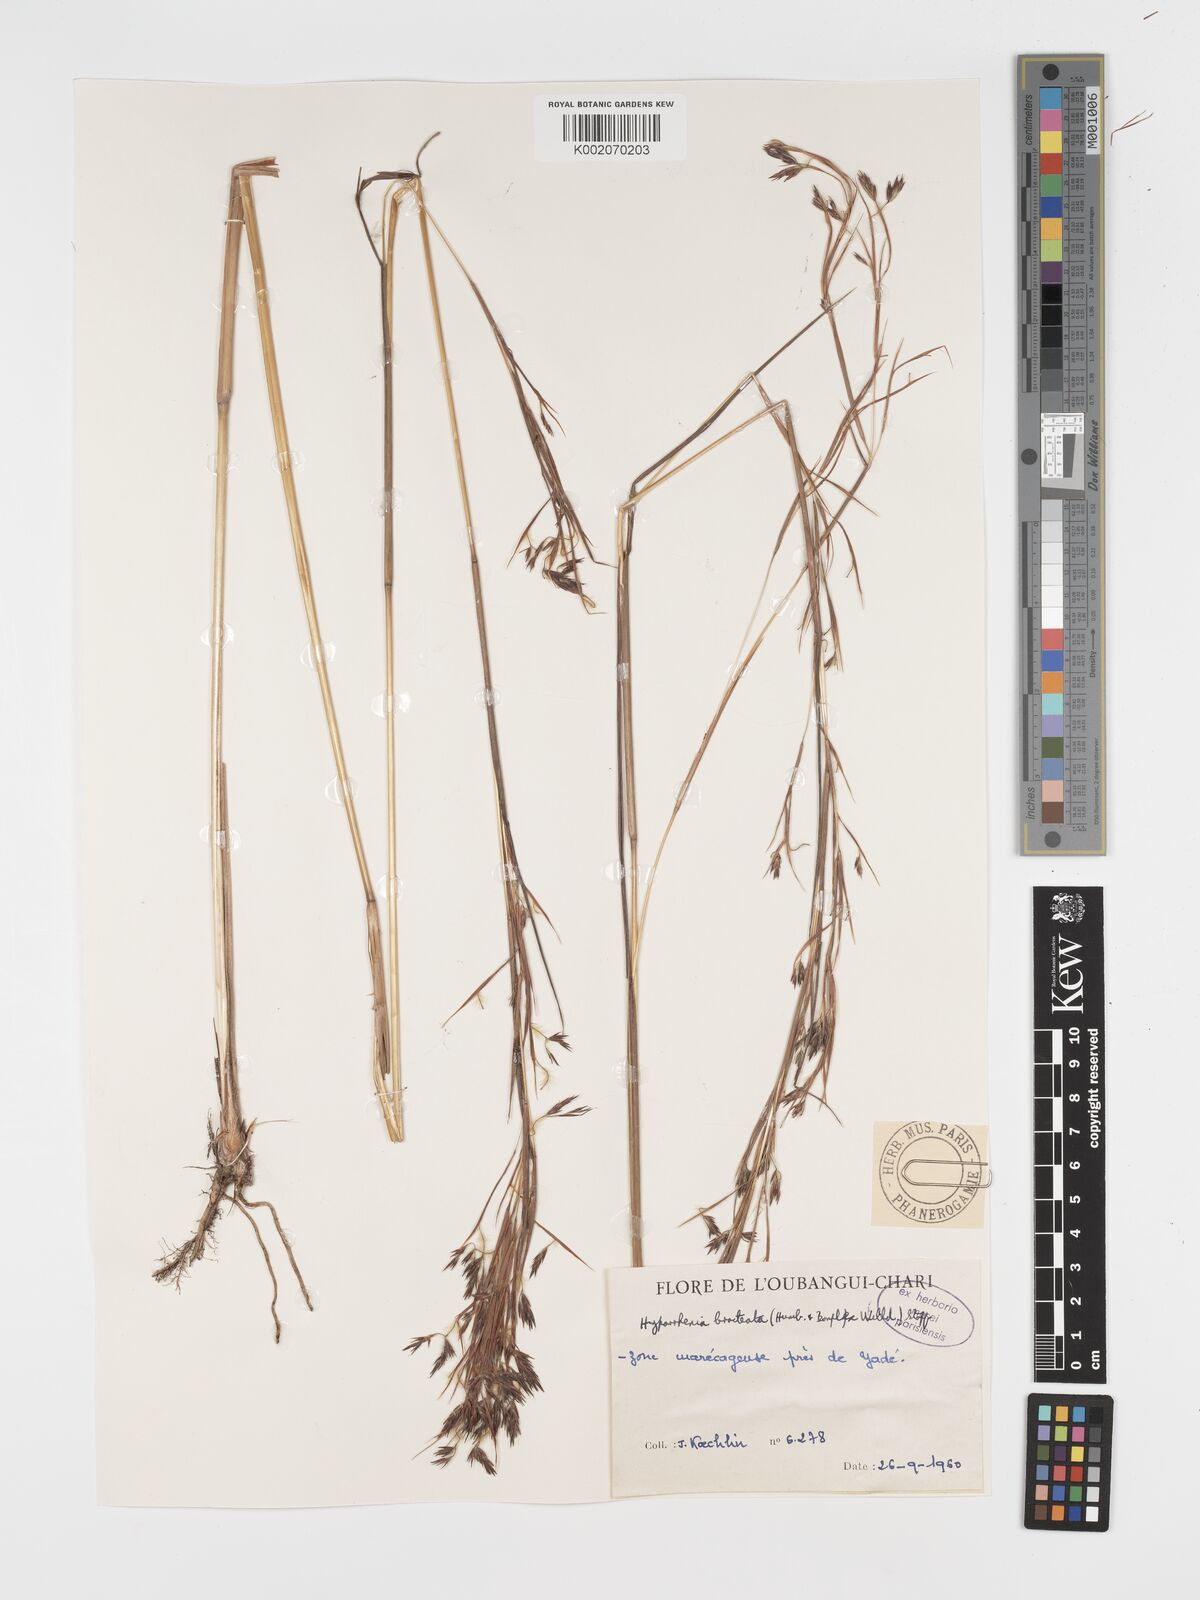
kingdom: Plantae
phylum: Tracheophyta
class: Liliopsida
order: Poales
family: Poaceae
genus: Hyparrhenia
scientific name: Hyparrhenia bracteata
